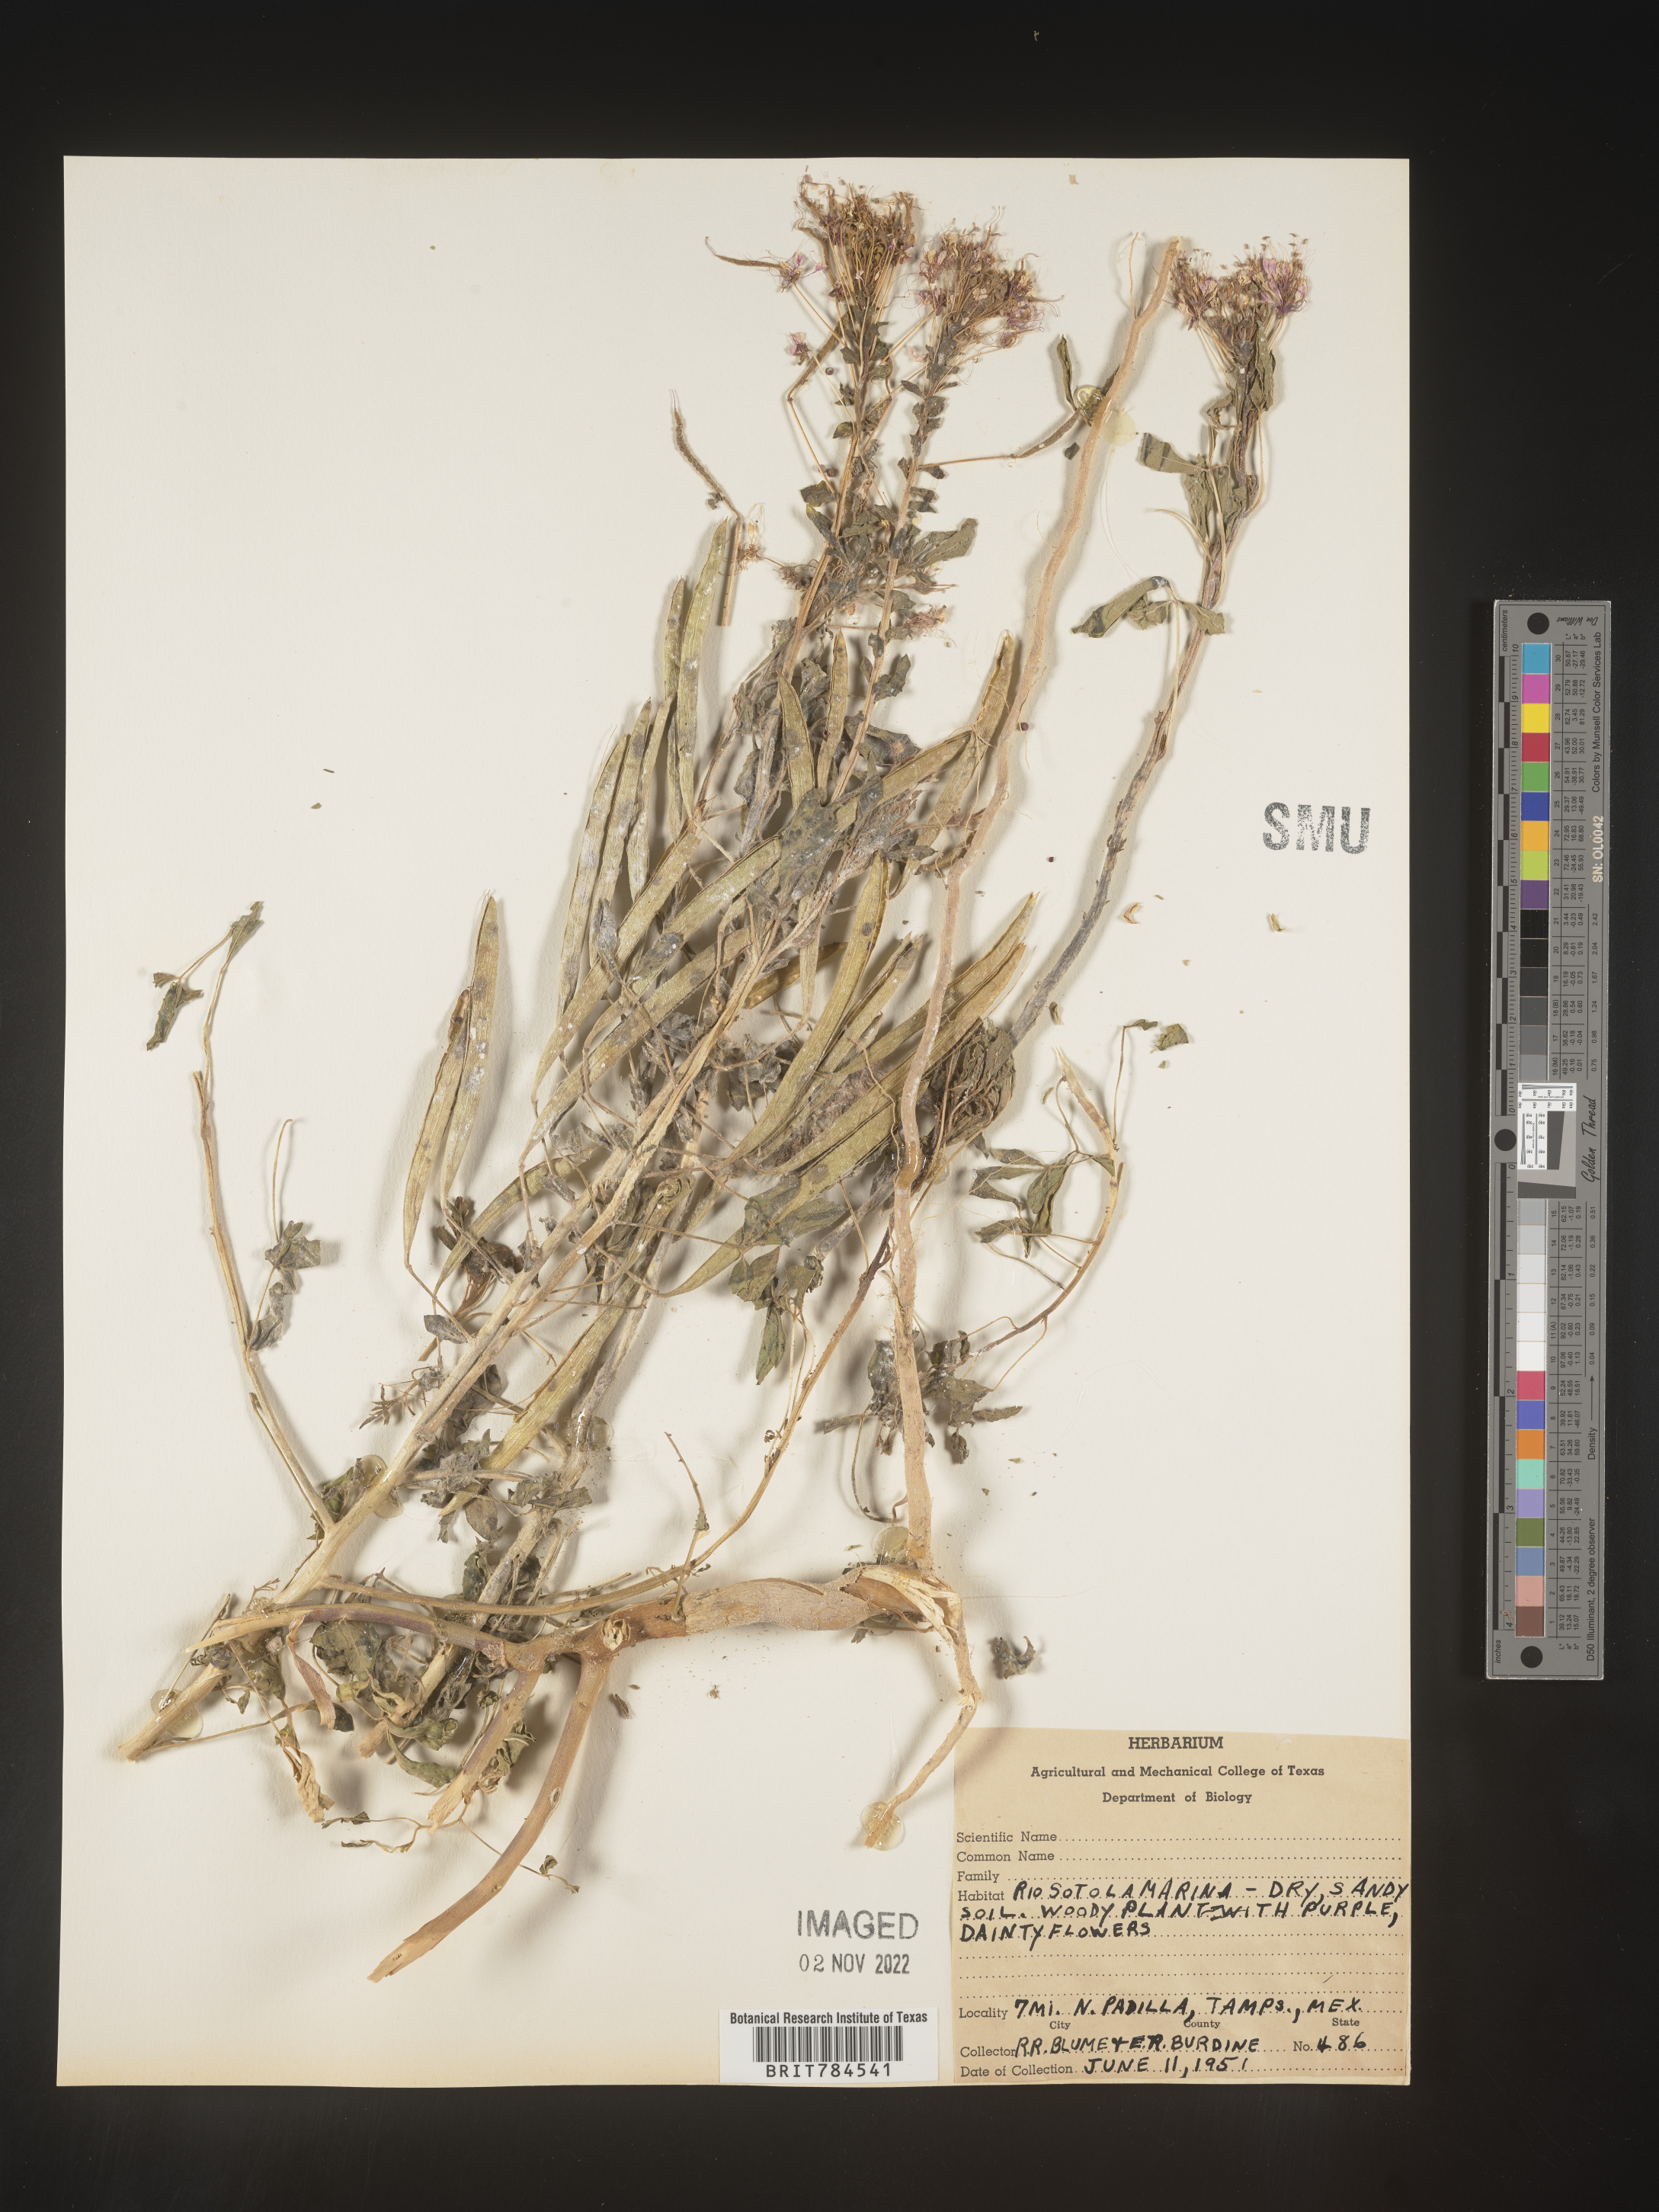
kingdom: Plantae
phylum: Tracheophyta
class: Magnoliopsida
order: Brassicales
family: Cleomaceae
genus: Polanisia
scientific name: Polanisia
